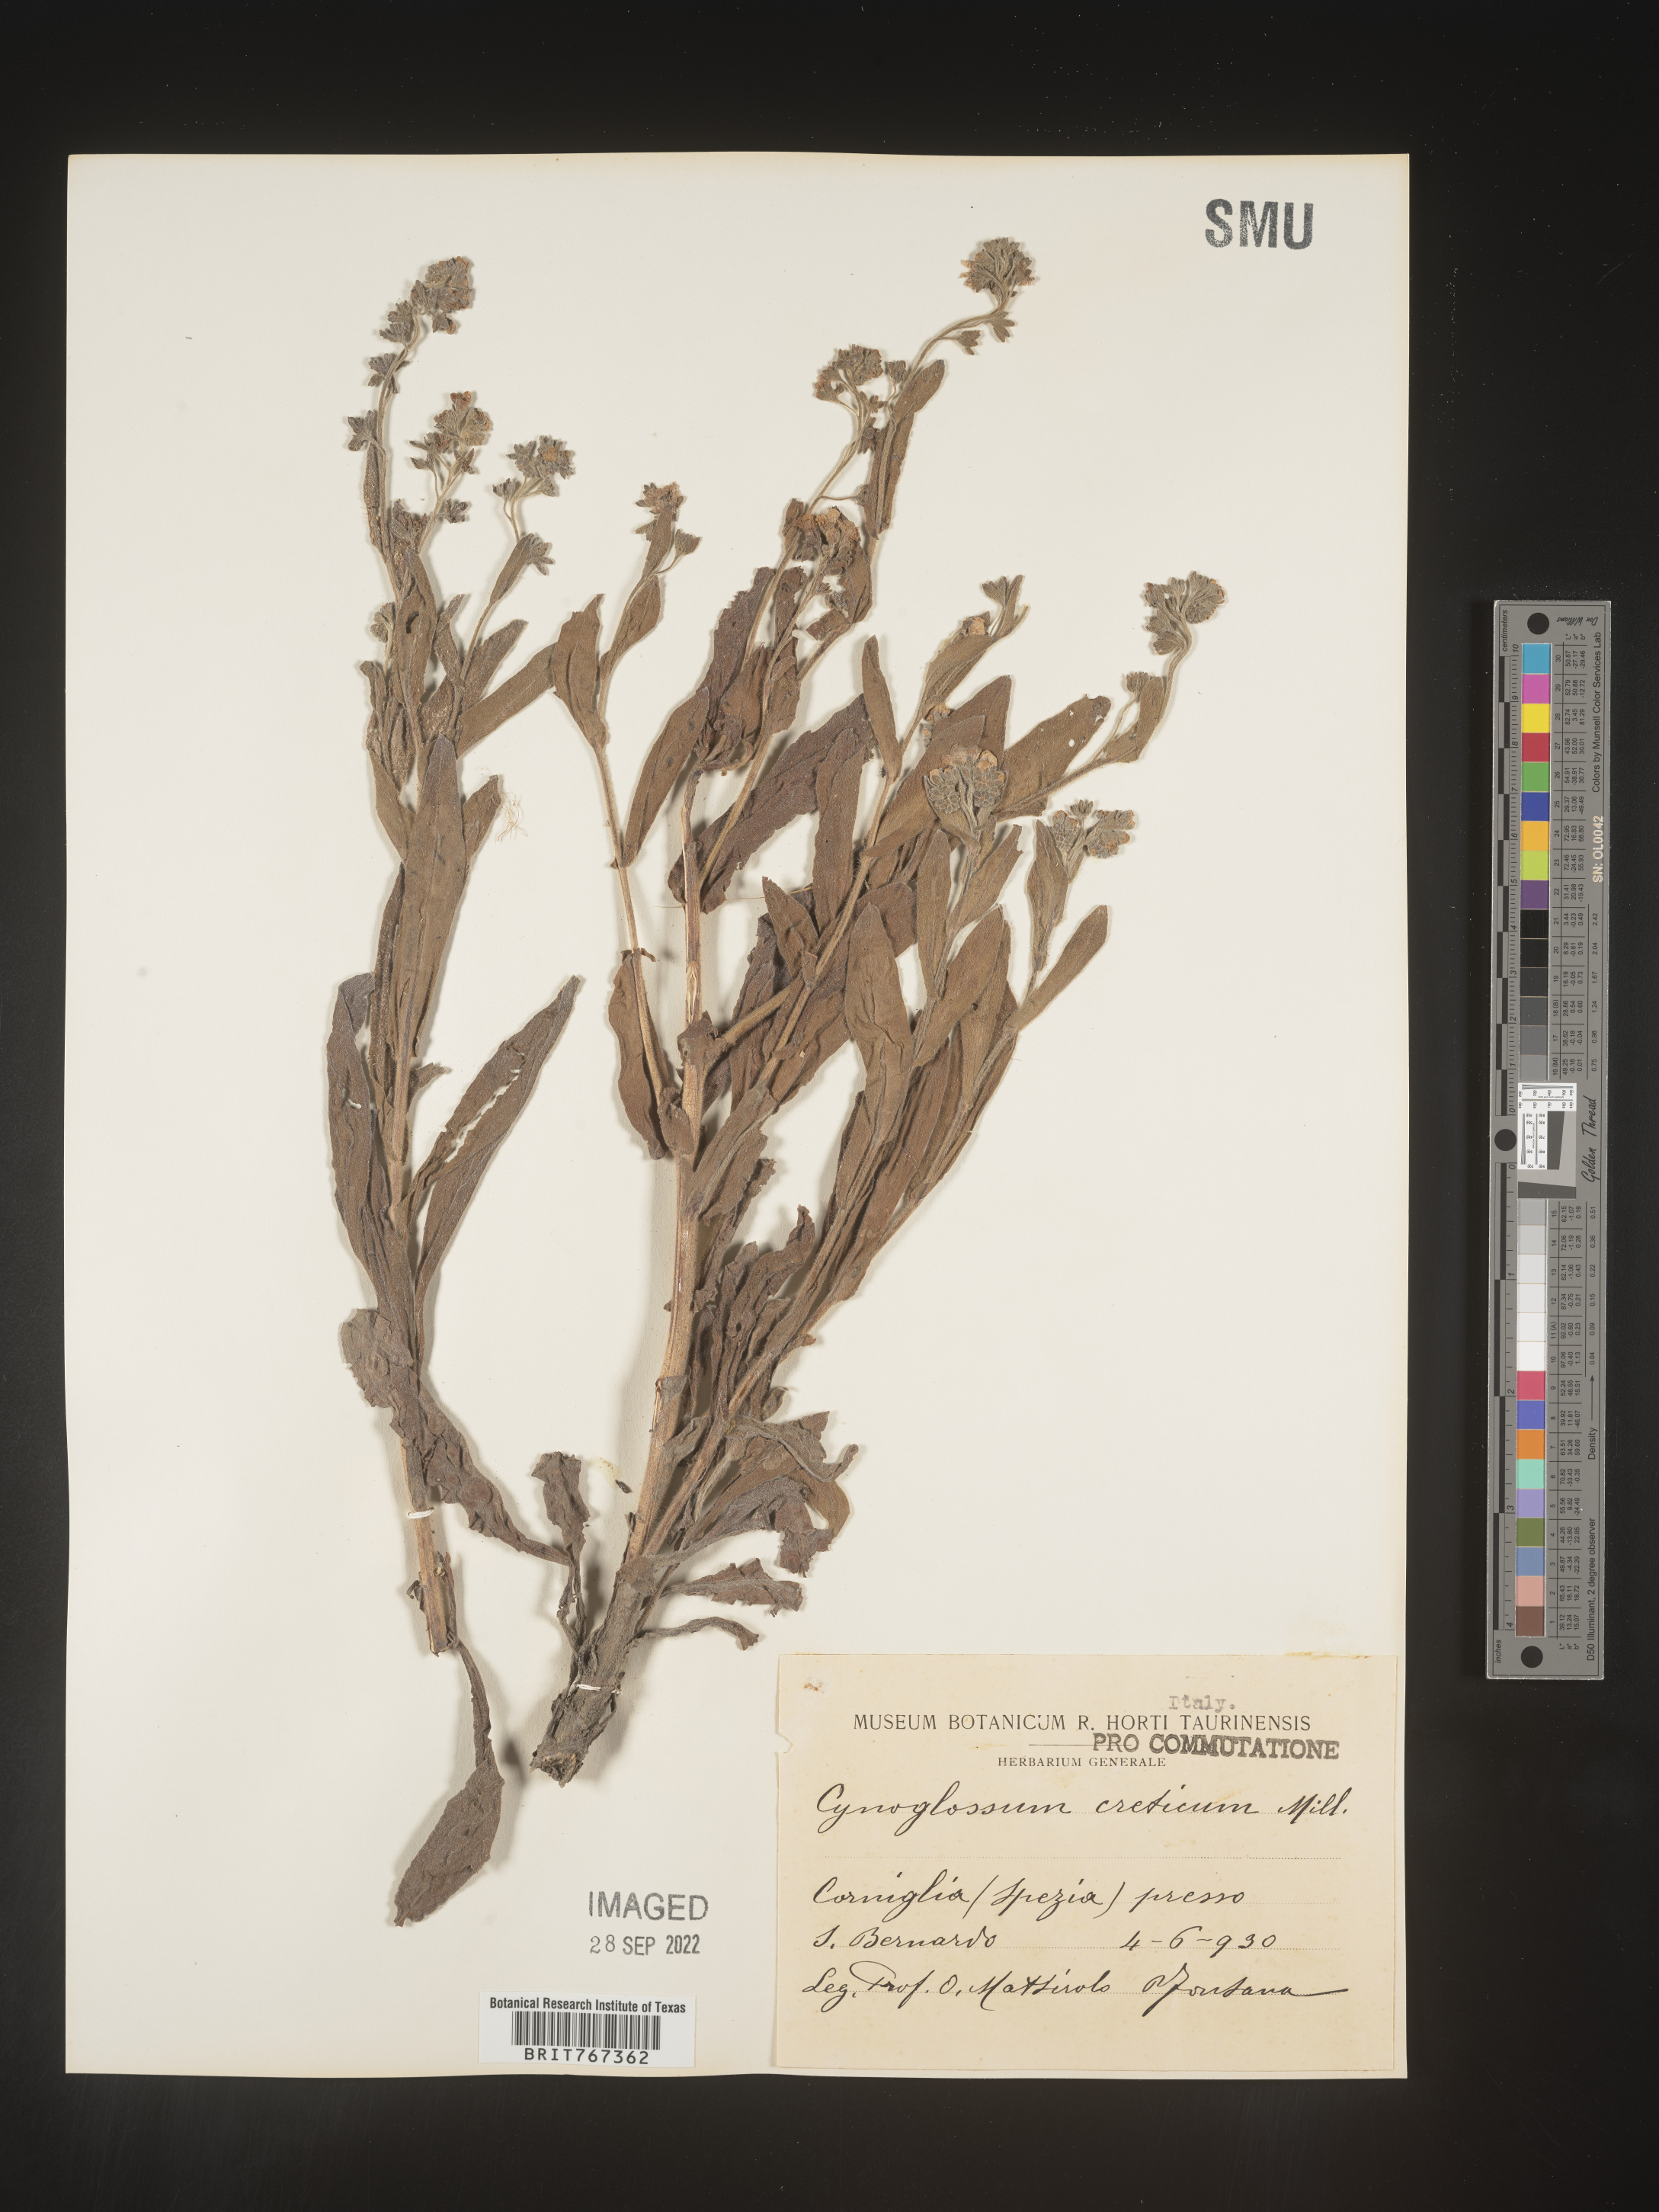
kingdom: Plantae
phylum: Tracheophyta
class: Magnoliopsida
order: Boraginales
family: Boraginaceae
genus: Cynoglossum
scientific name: Cynoglossum
